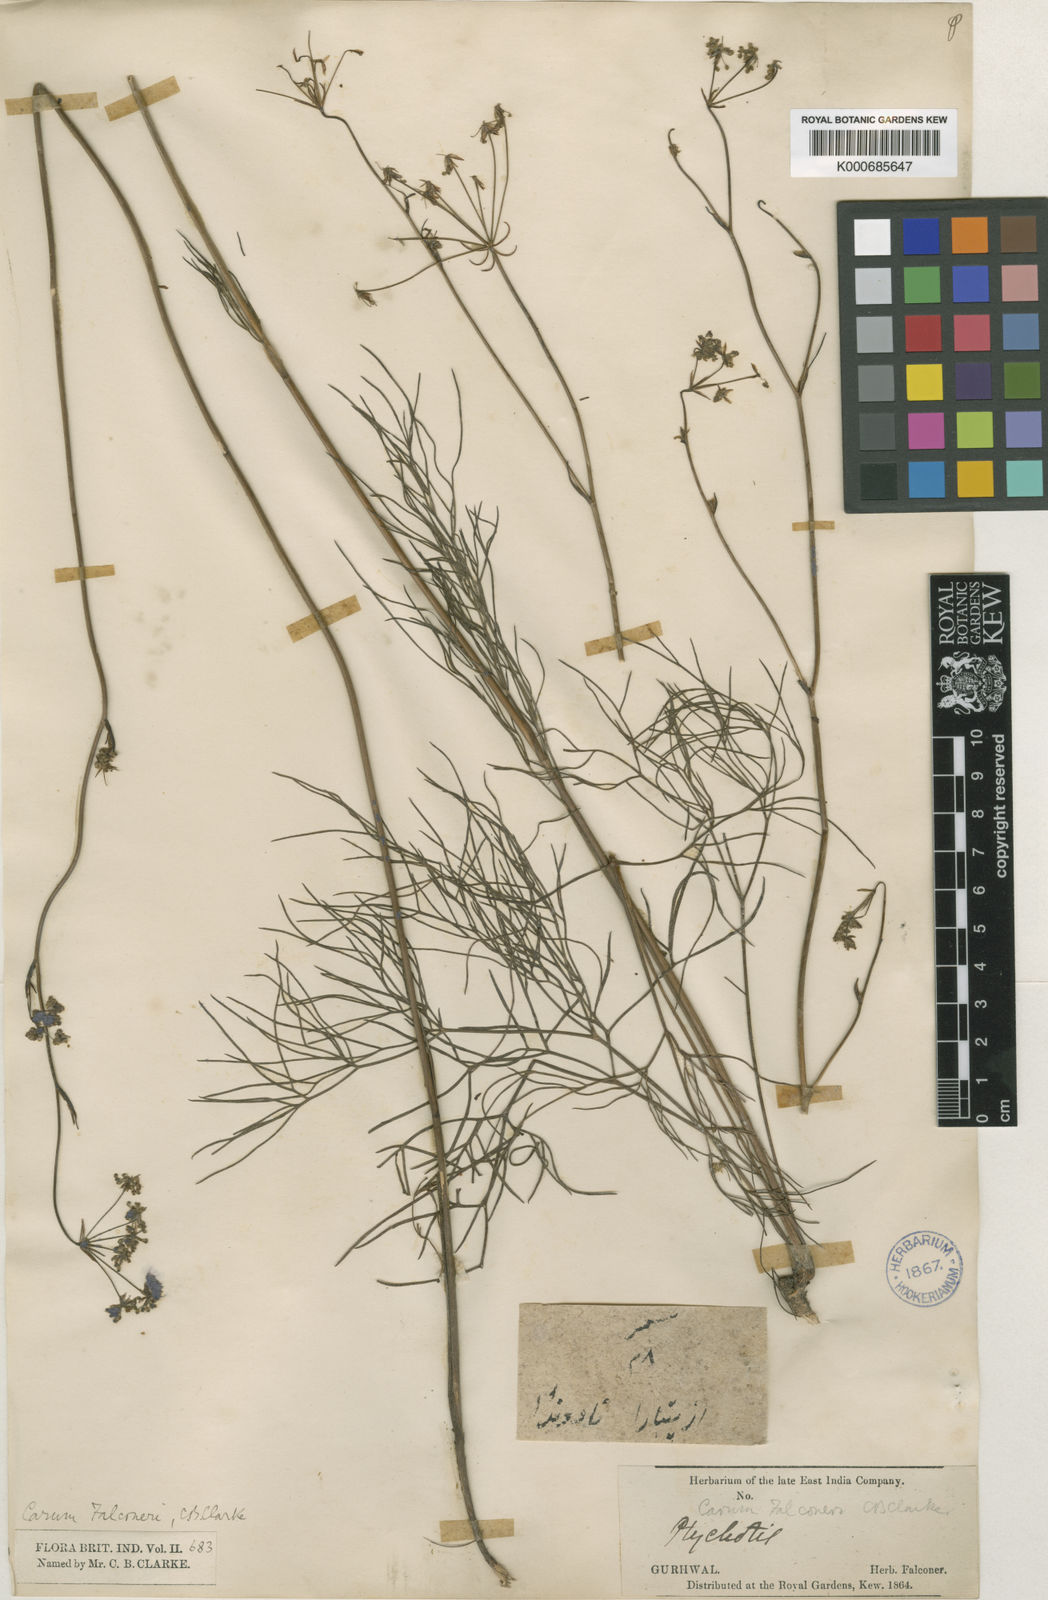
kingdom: Plantae
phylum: Tracheophyta
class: Magnoliopsida
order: Apiales
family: Apiaceae
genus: Trachyspermum
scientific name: Trachyspermum falconeri
